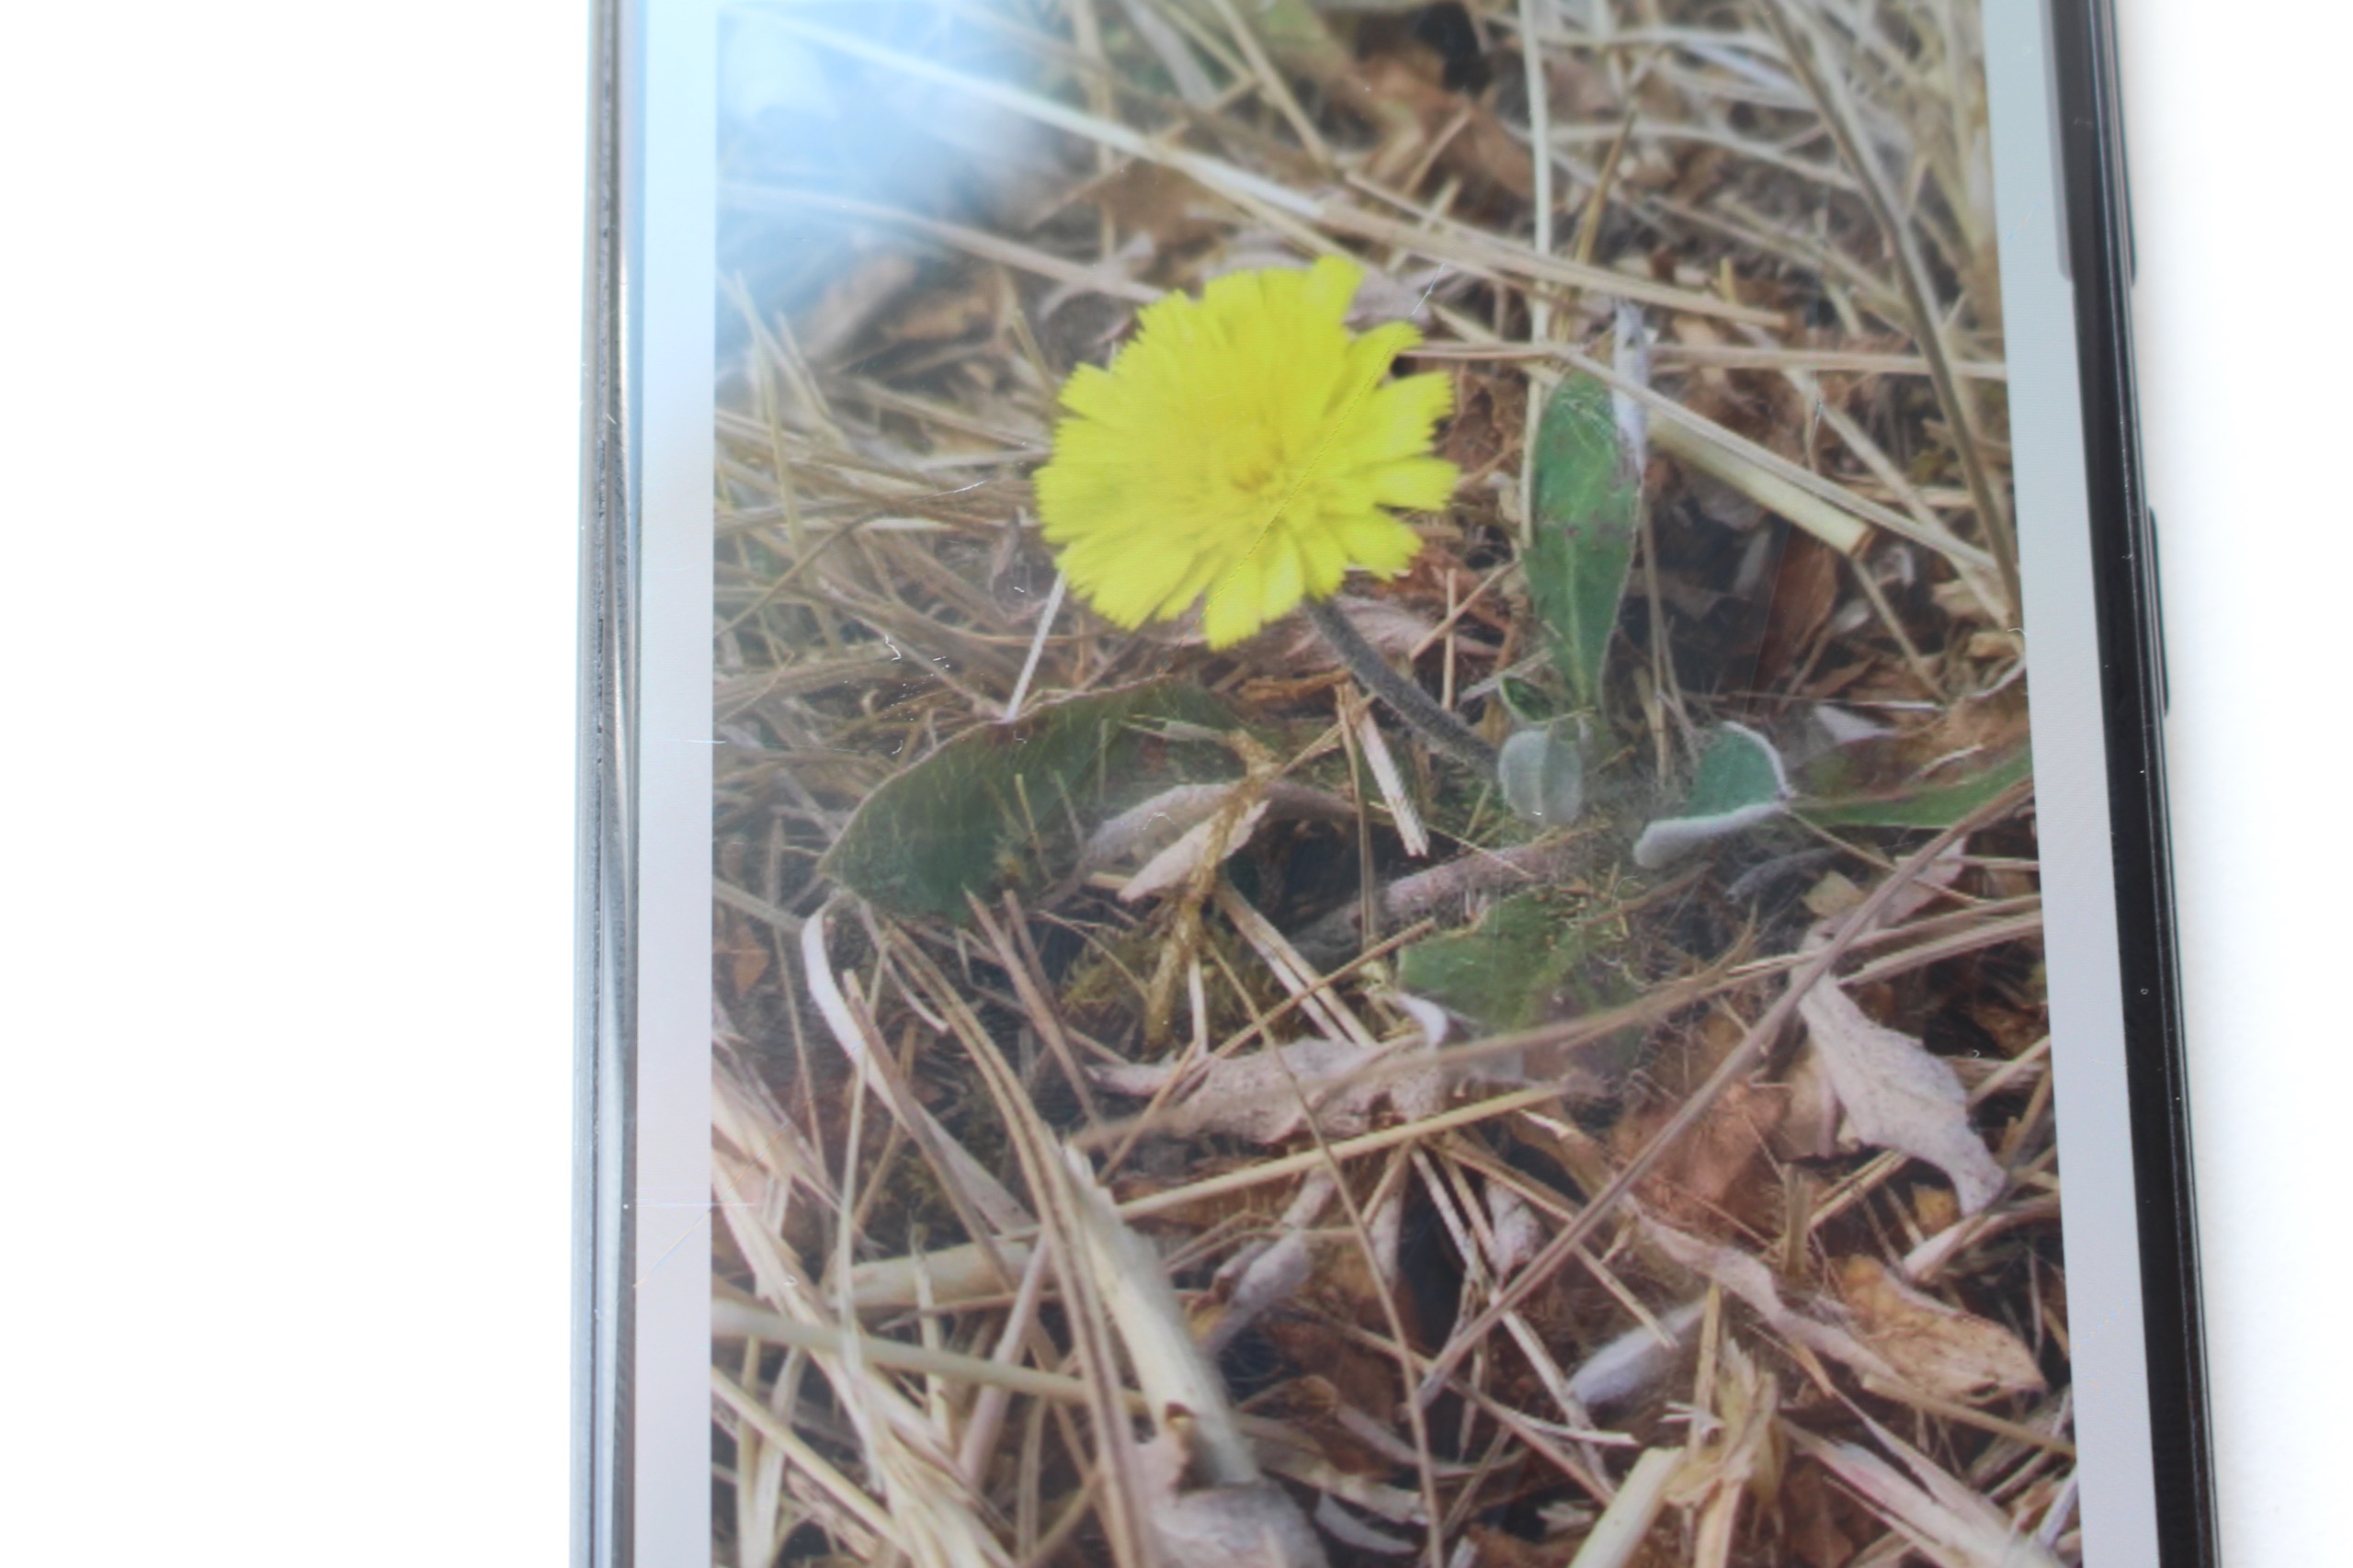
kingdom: Plantae
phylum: Tracheophyta
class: Magnoliopsida
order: Asterales
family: Asteraceae
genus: Pilosella
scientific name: Pilosella officinarum
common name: Håret høgeurt
